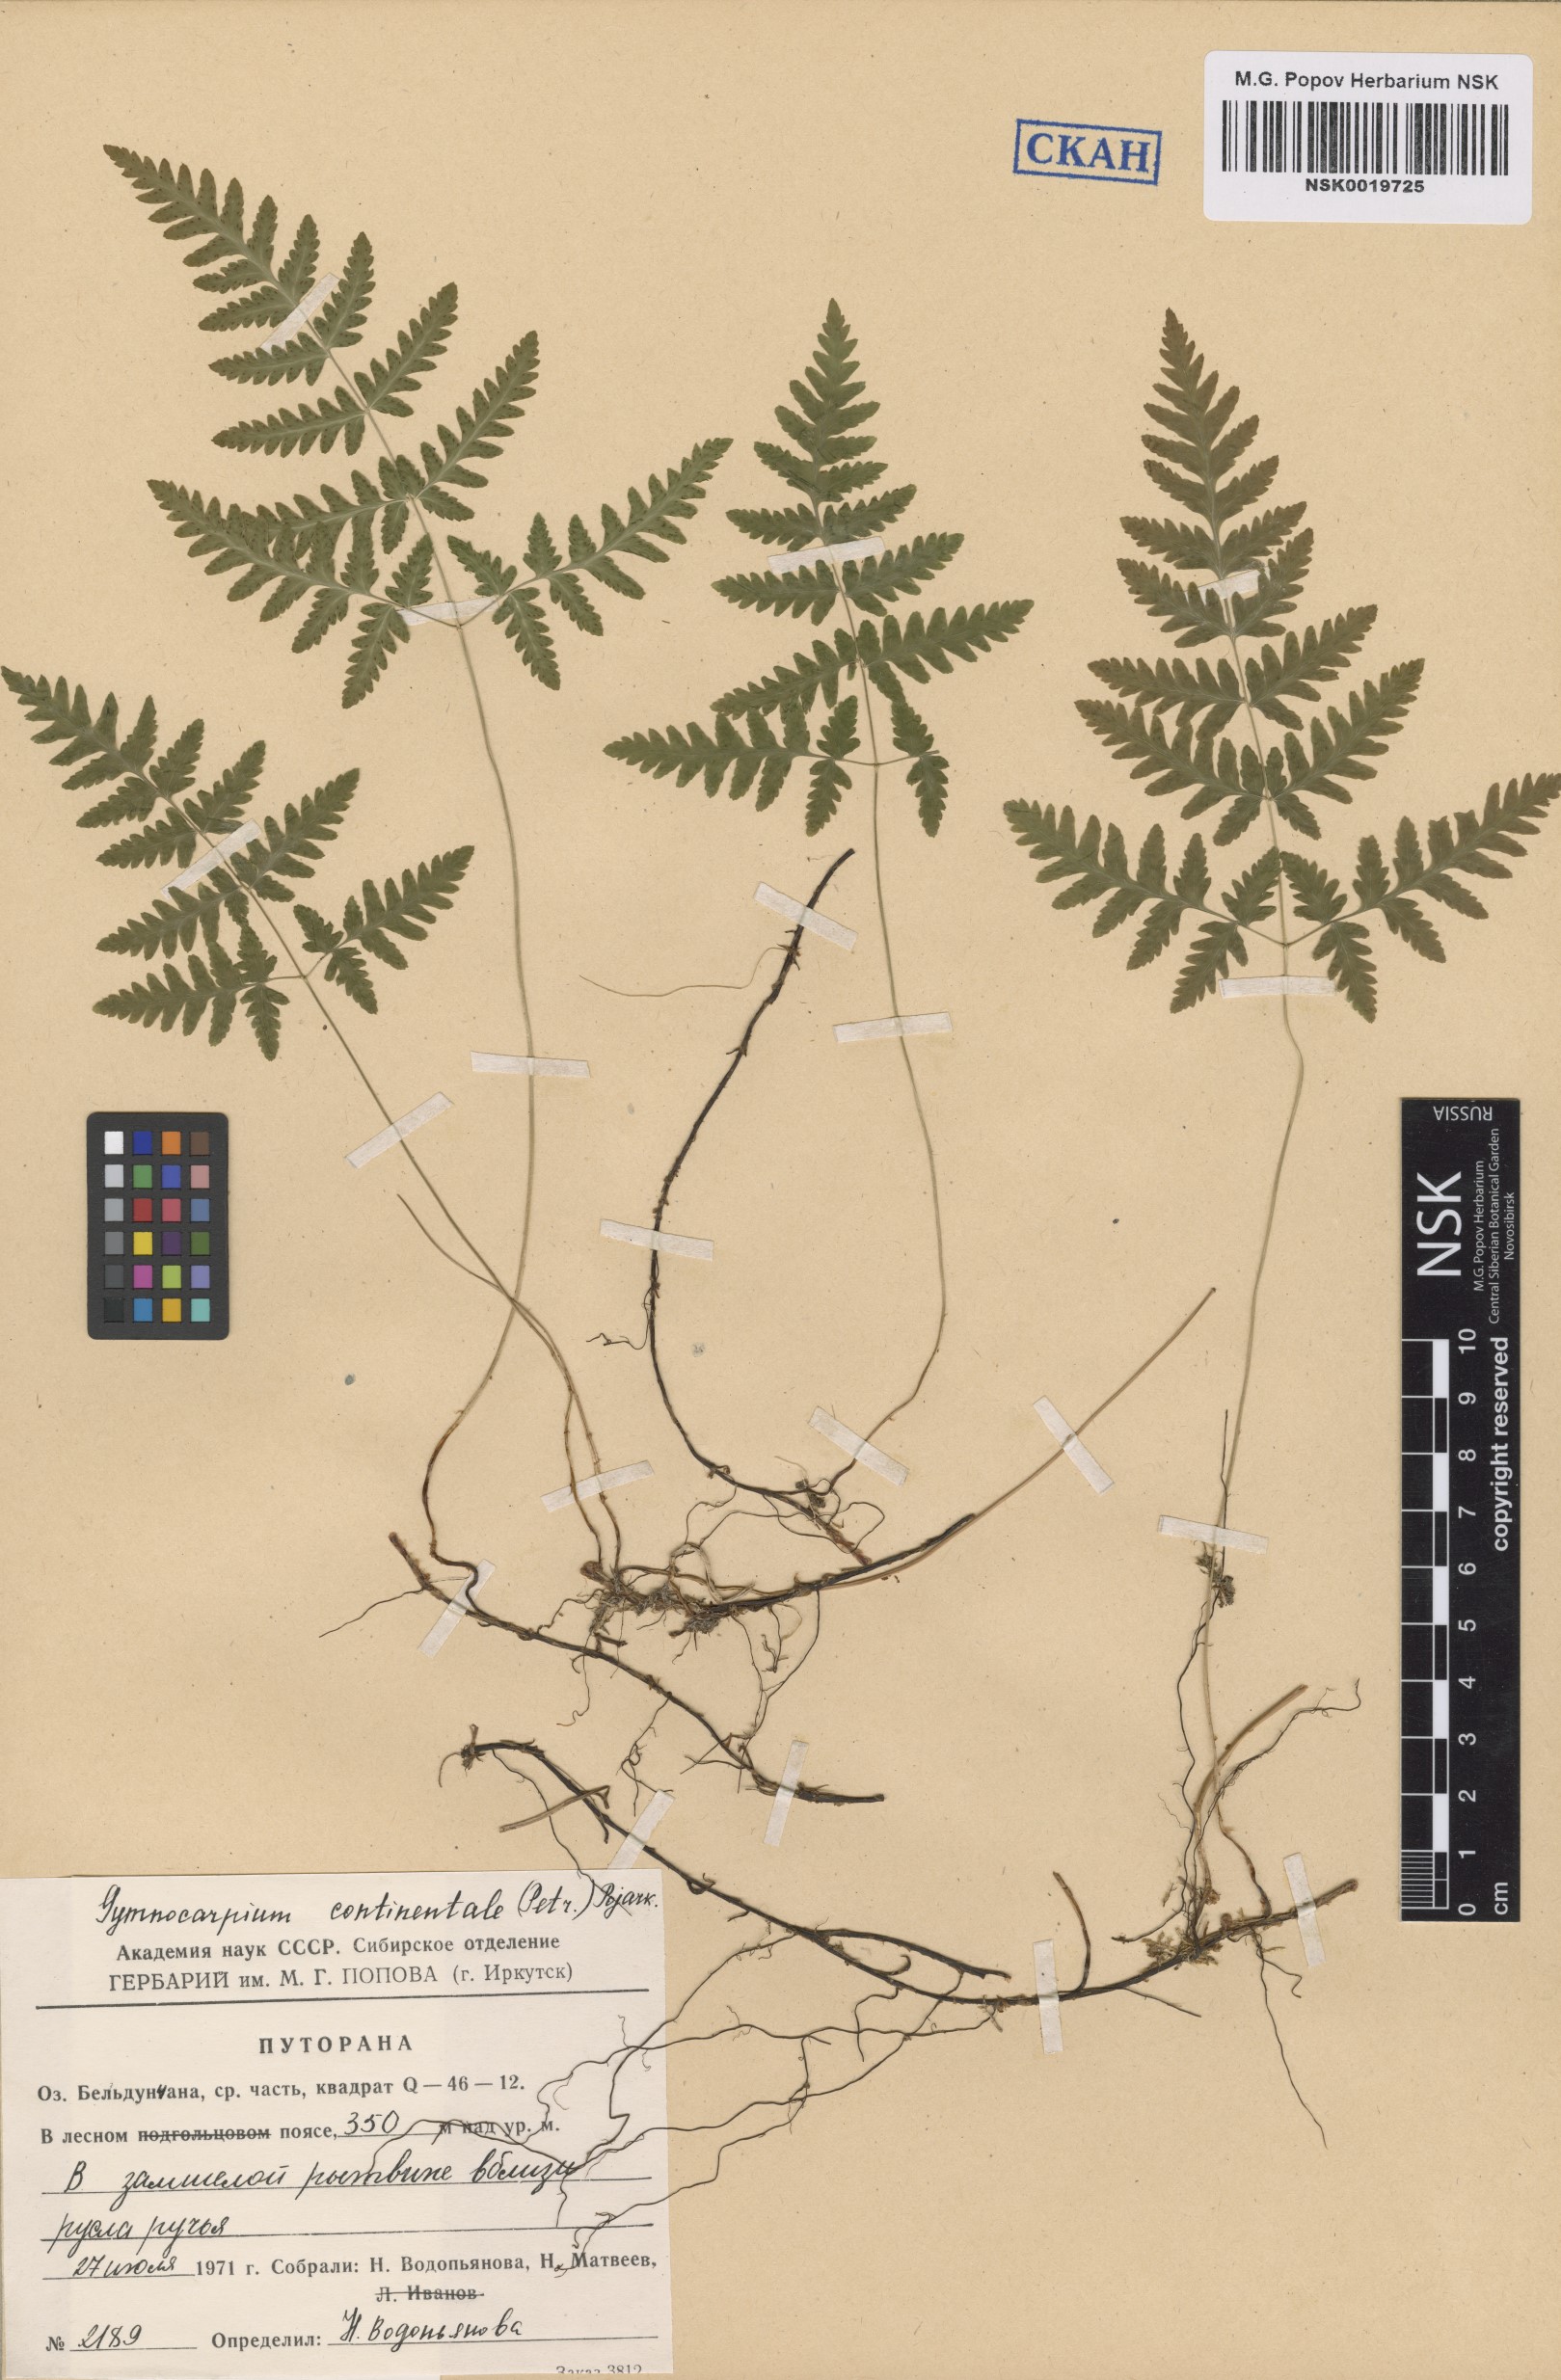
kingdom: Plantae
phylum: Tracheophyta
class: Polypodiopsida
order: Polypodiales
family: Cystopteridaceae
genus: Gymnocarpium
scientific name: Gymnocarpium continentale
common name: Asian oak fern
